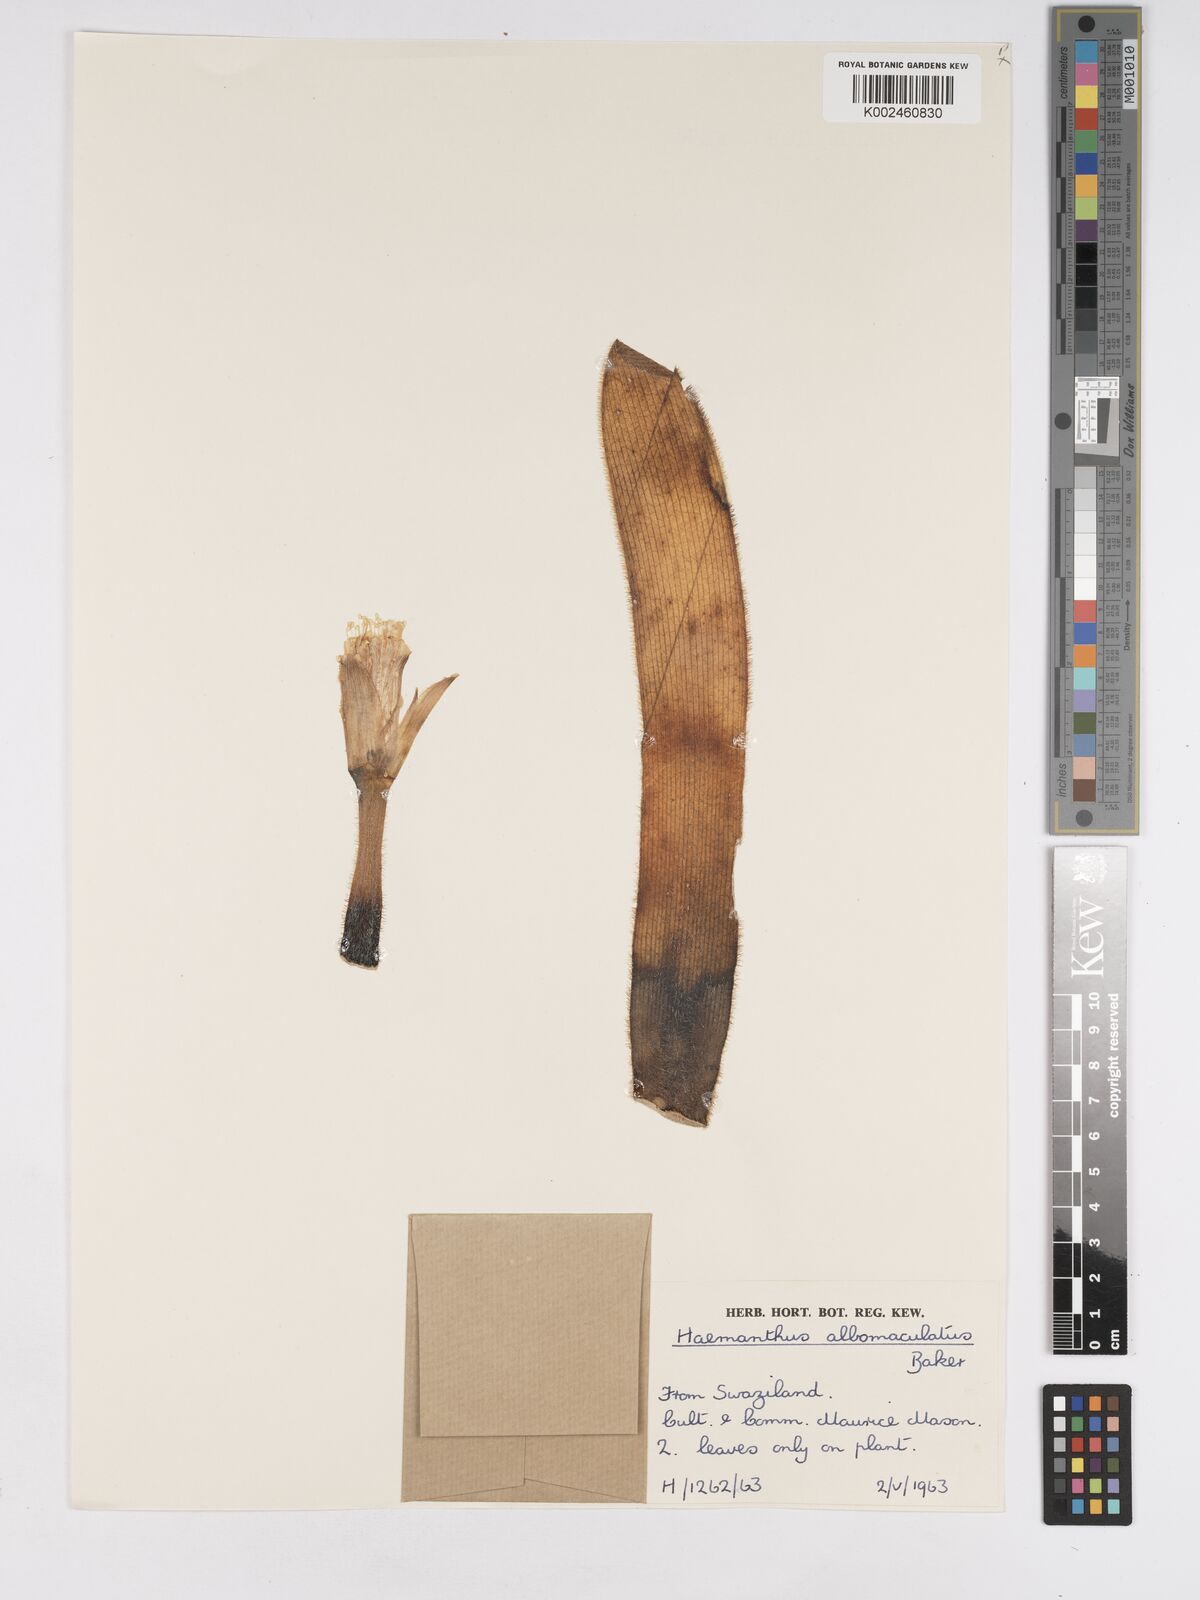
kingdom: Plantae
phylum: Tracheophyta
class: Liliopsida
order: Asparagales
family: Amaryllidaceae
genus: Haemanthus
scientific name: Haemanthus albiflos
